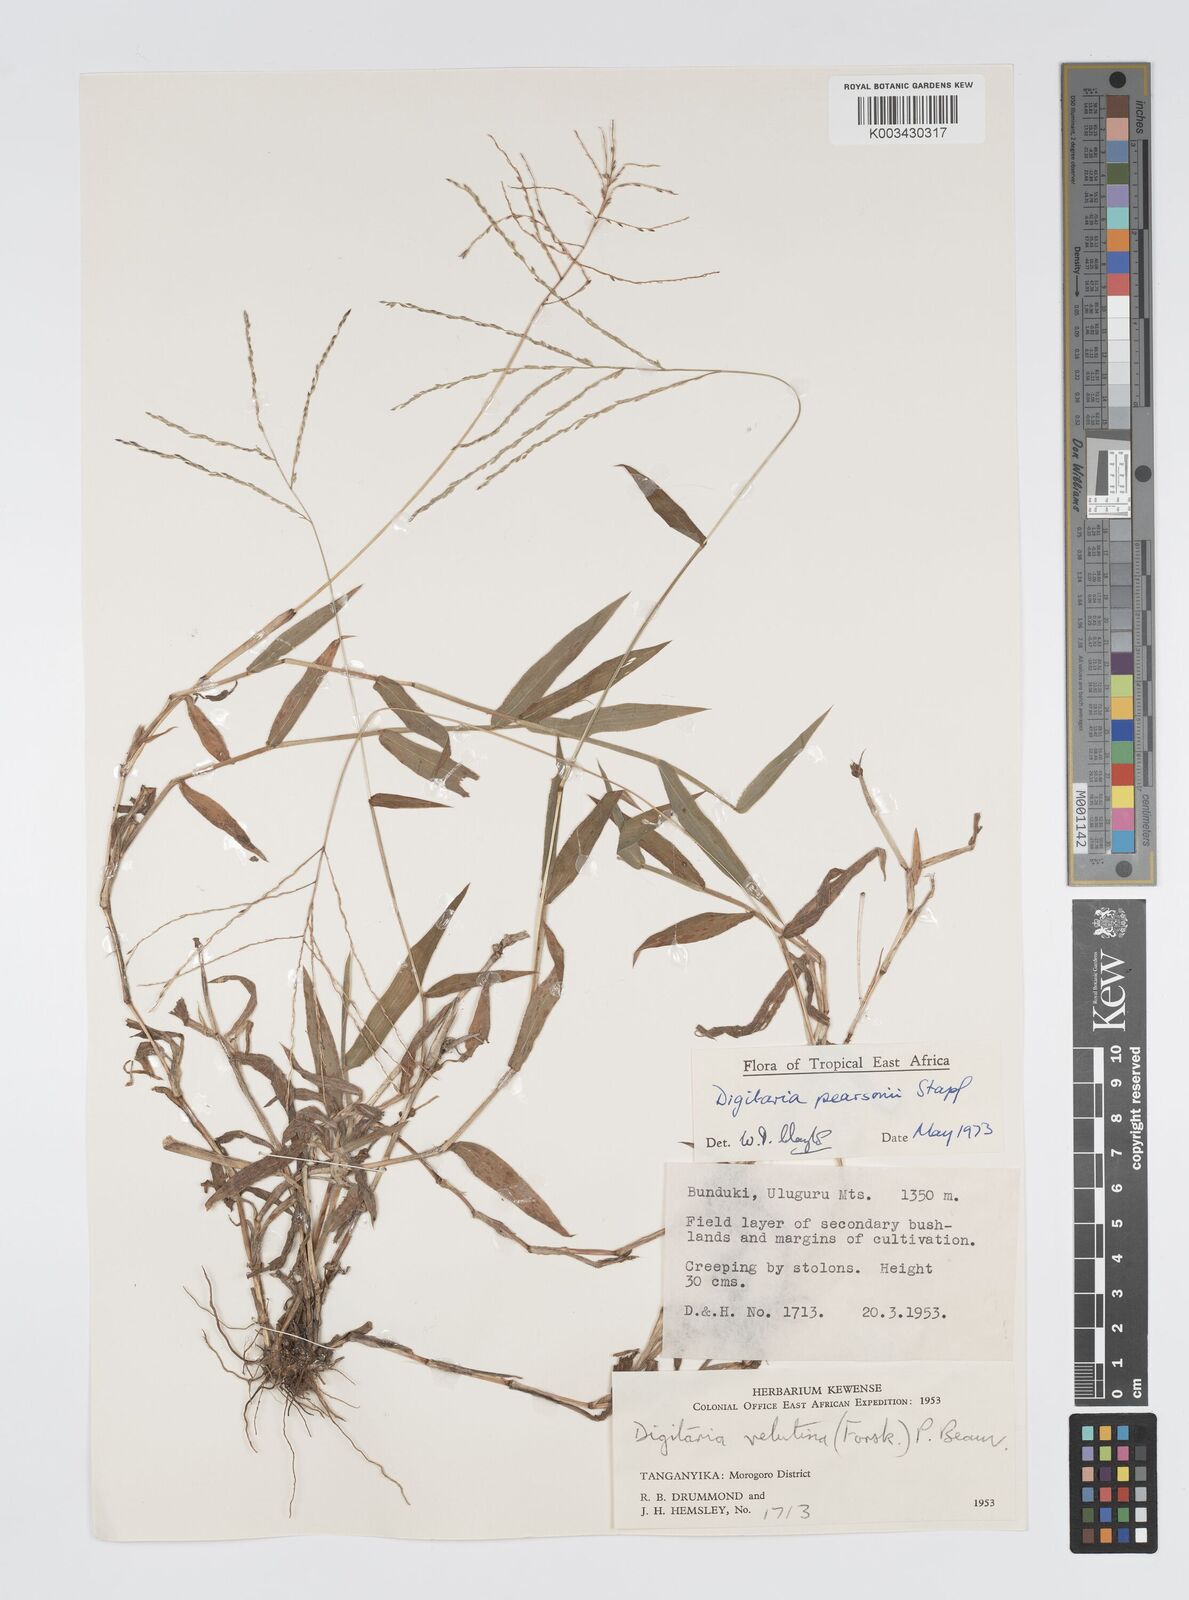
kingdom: Plantae
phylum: Tracheophyta
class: Liliopsida
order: Poales
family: Poaceae
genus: Digitaria
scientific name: Digitaria pearsonii
